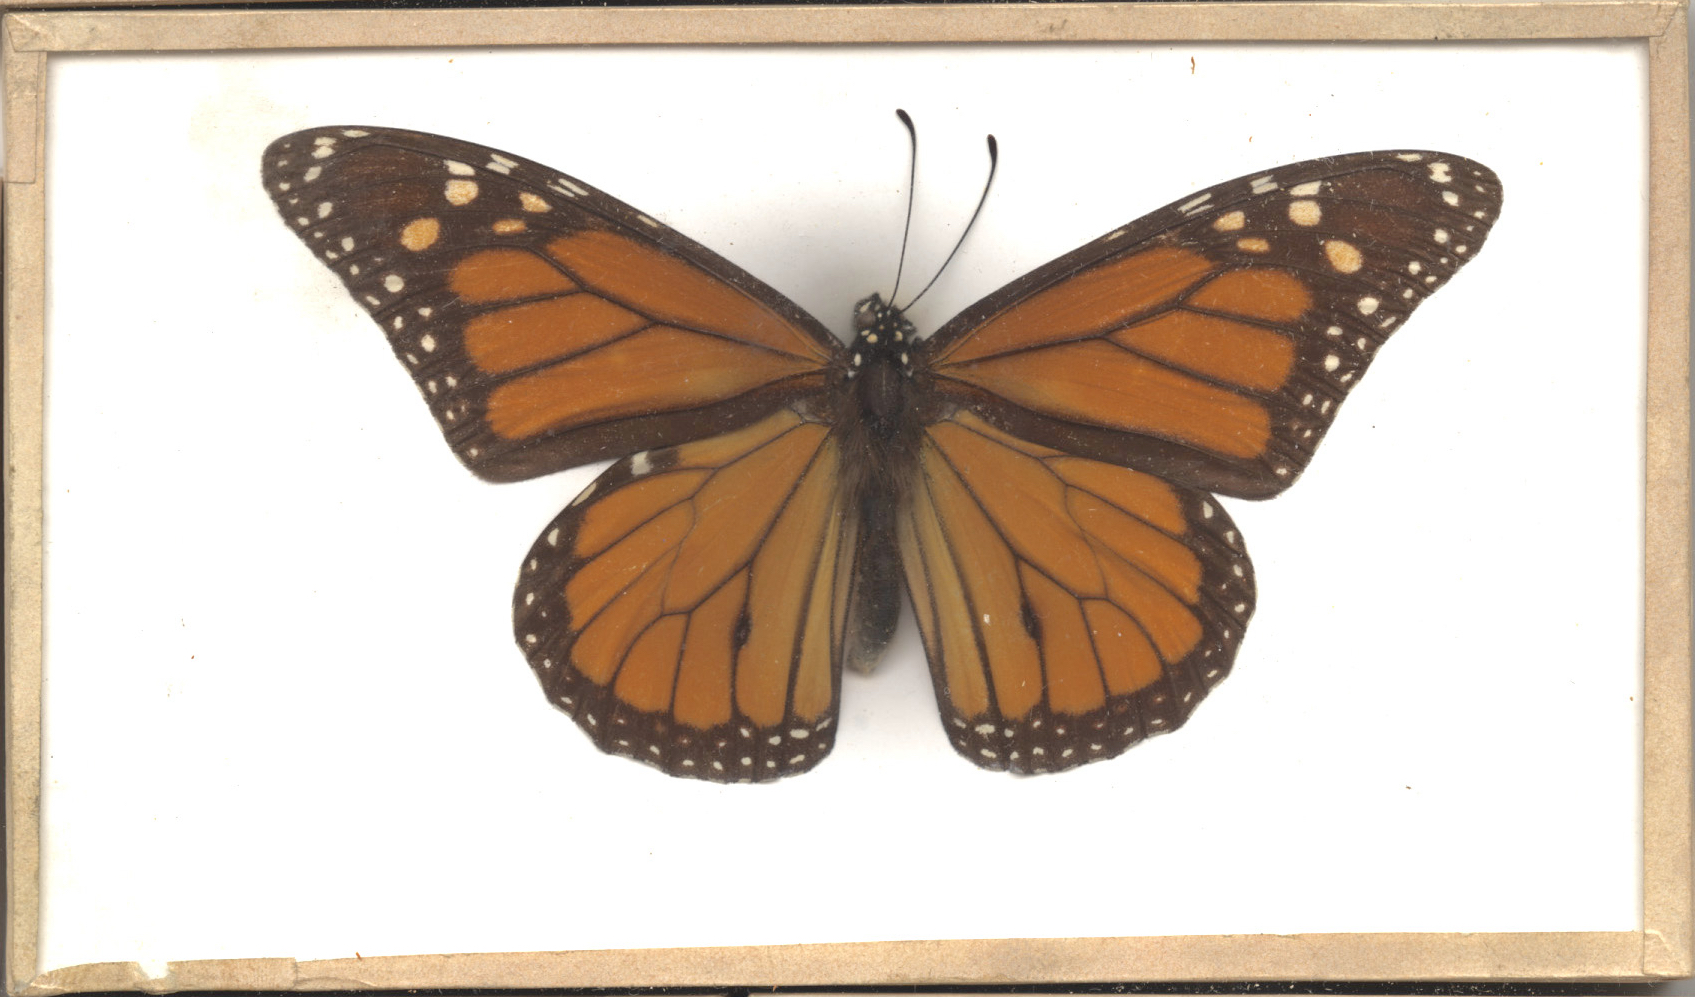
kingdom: Animalia
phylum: Arthropoda
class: Insecta
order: Lepidoptera
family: Nymphalidae
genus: Danaus
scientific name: Danaus plexippus
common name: Monarch
